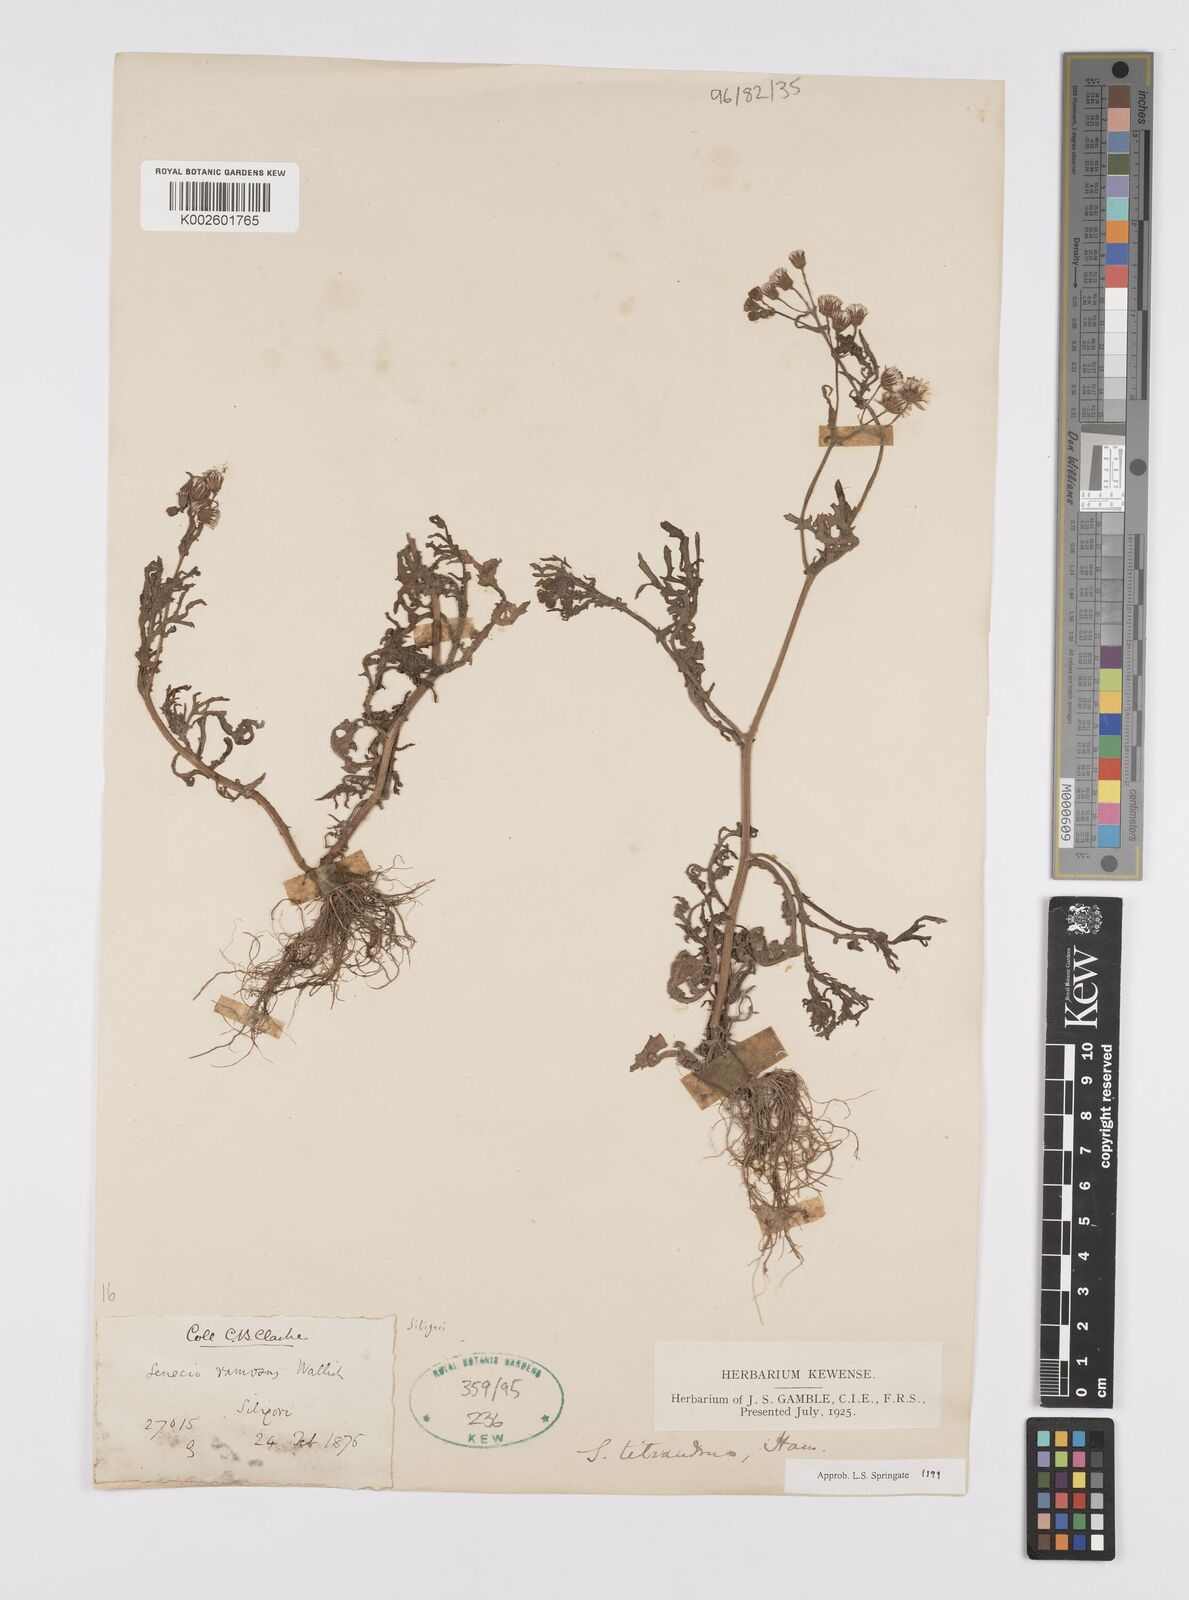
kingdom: Plantae
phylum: Tracheophyta
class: Magnoliopsida
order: Asterales
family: Asteraceae
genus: Senecio
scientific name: Senecio tetrandrus
